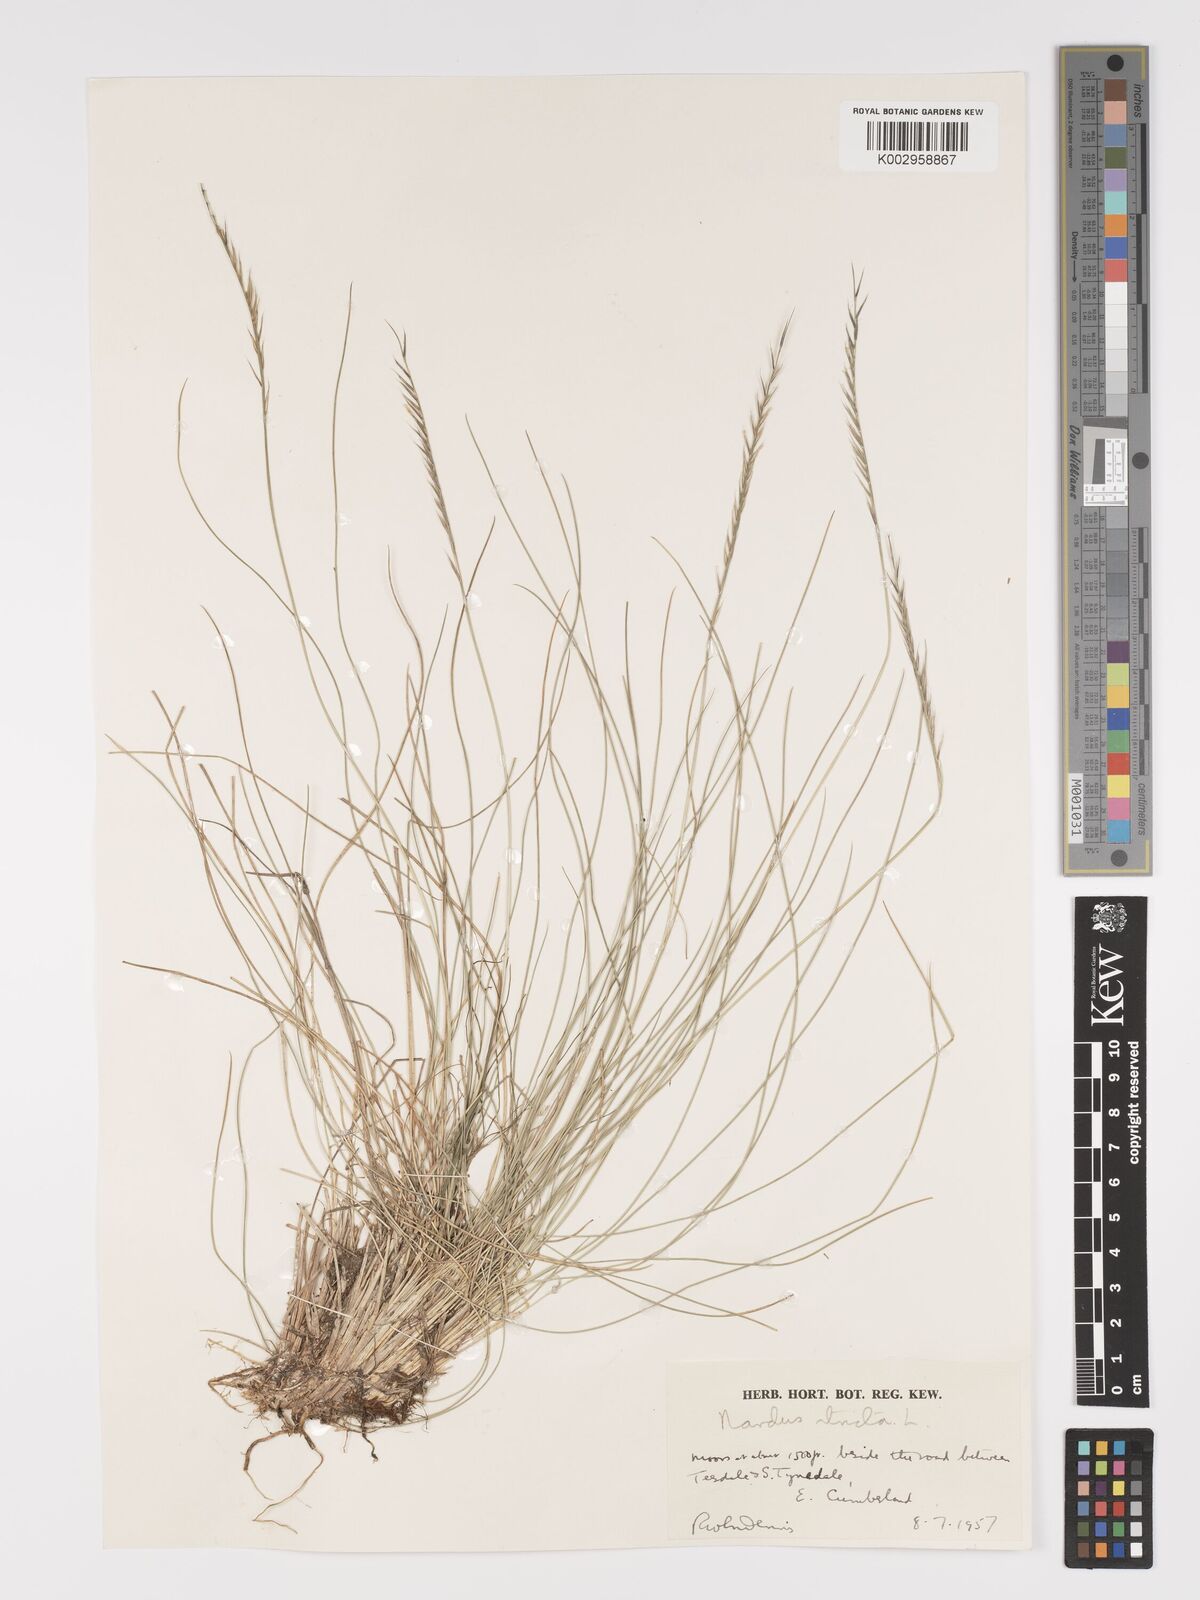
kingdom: Plantae
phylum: Tracheophyta
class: Liliopsida
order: Poales
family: Poaceae
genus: Nardus
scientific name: Nardus stricta
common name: Mat-grass
